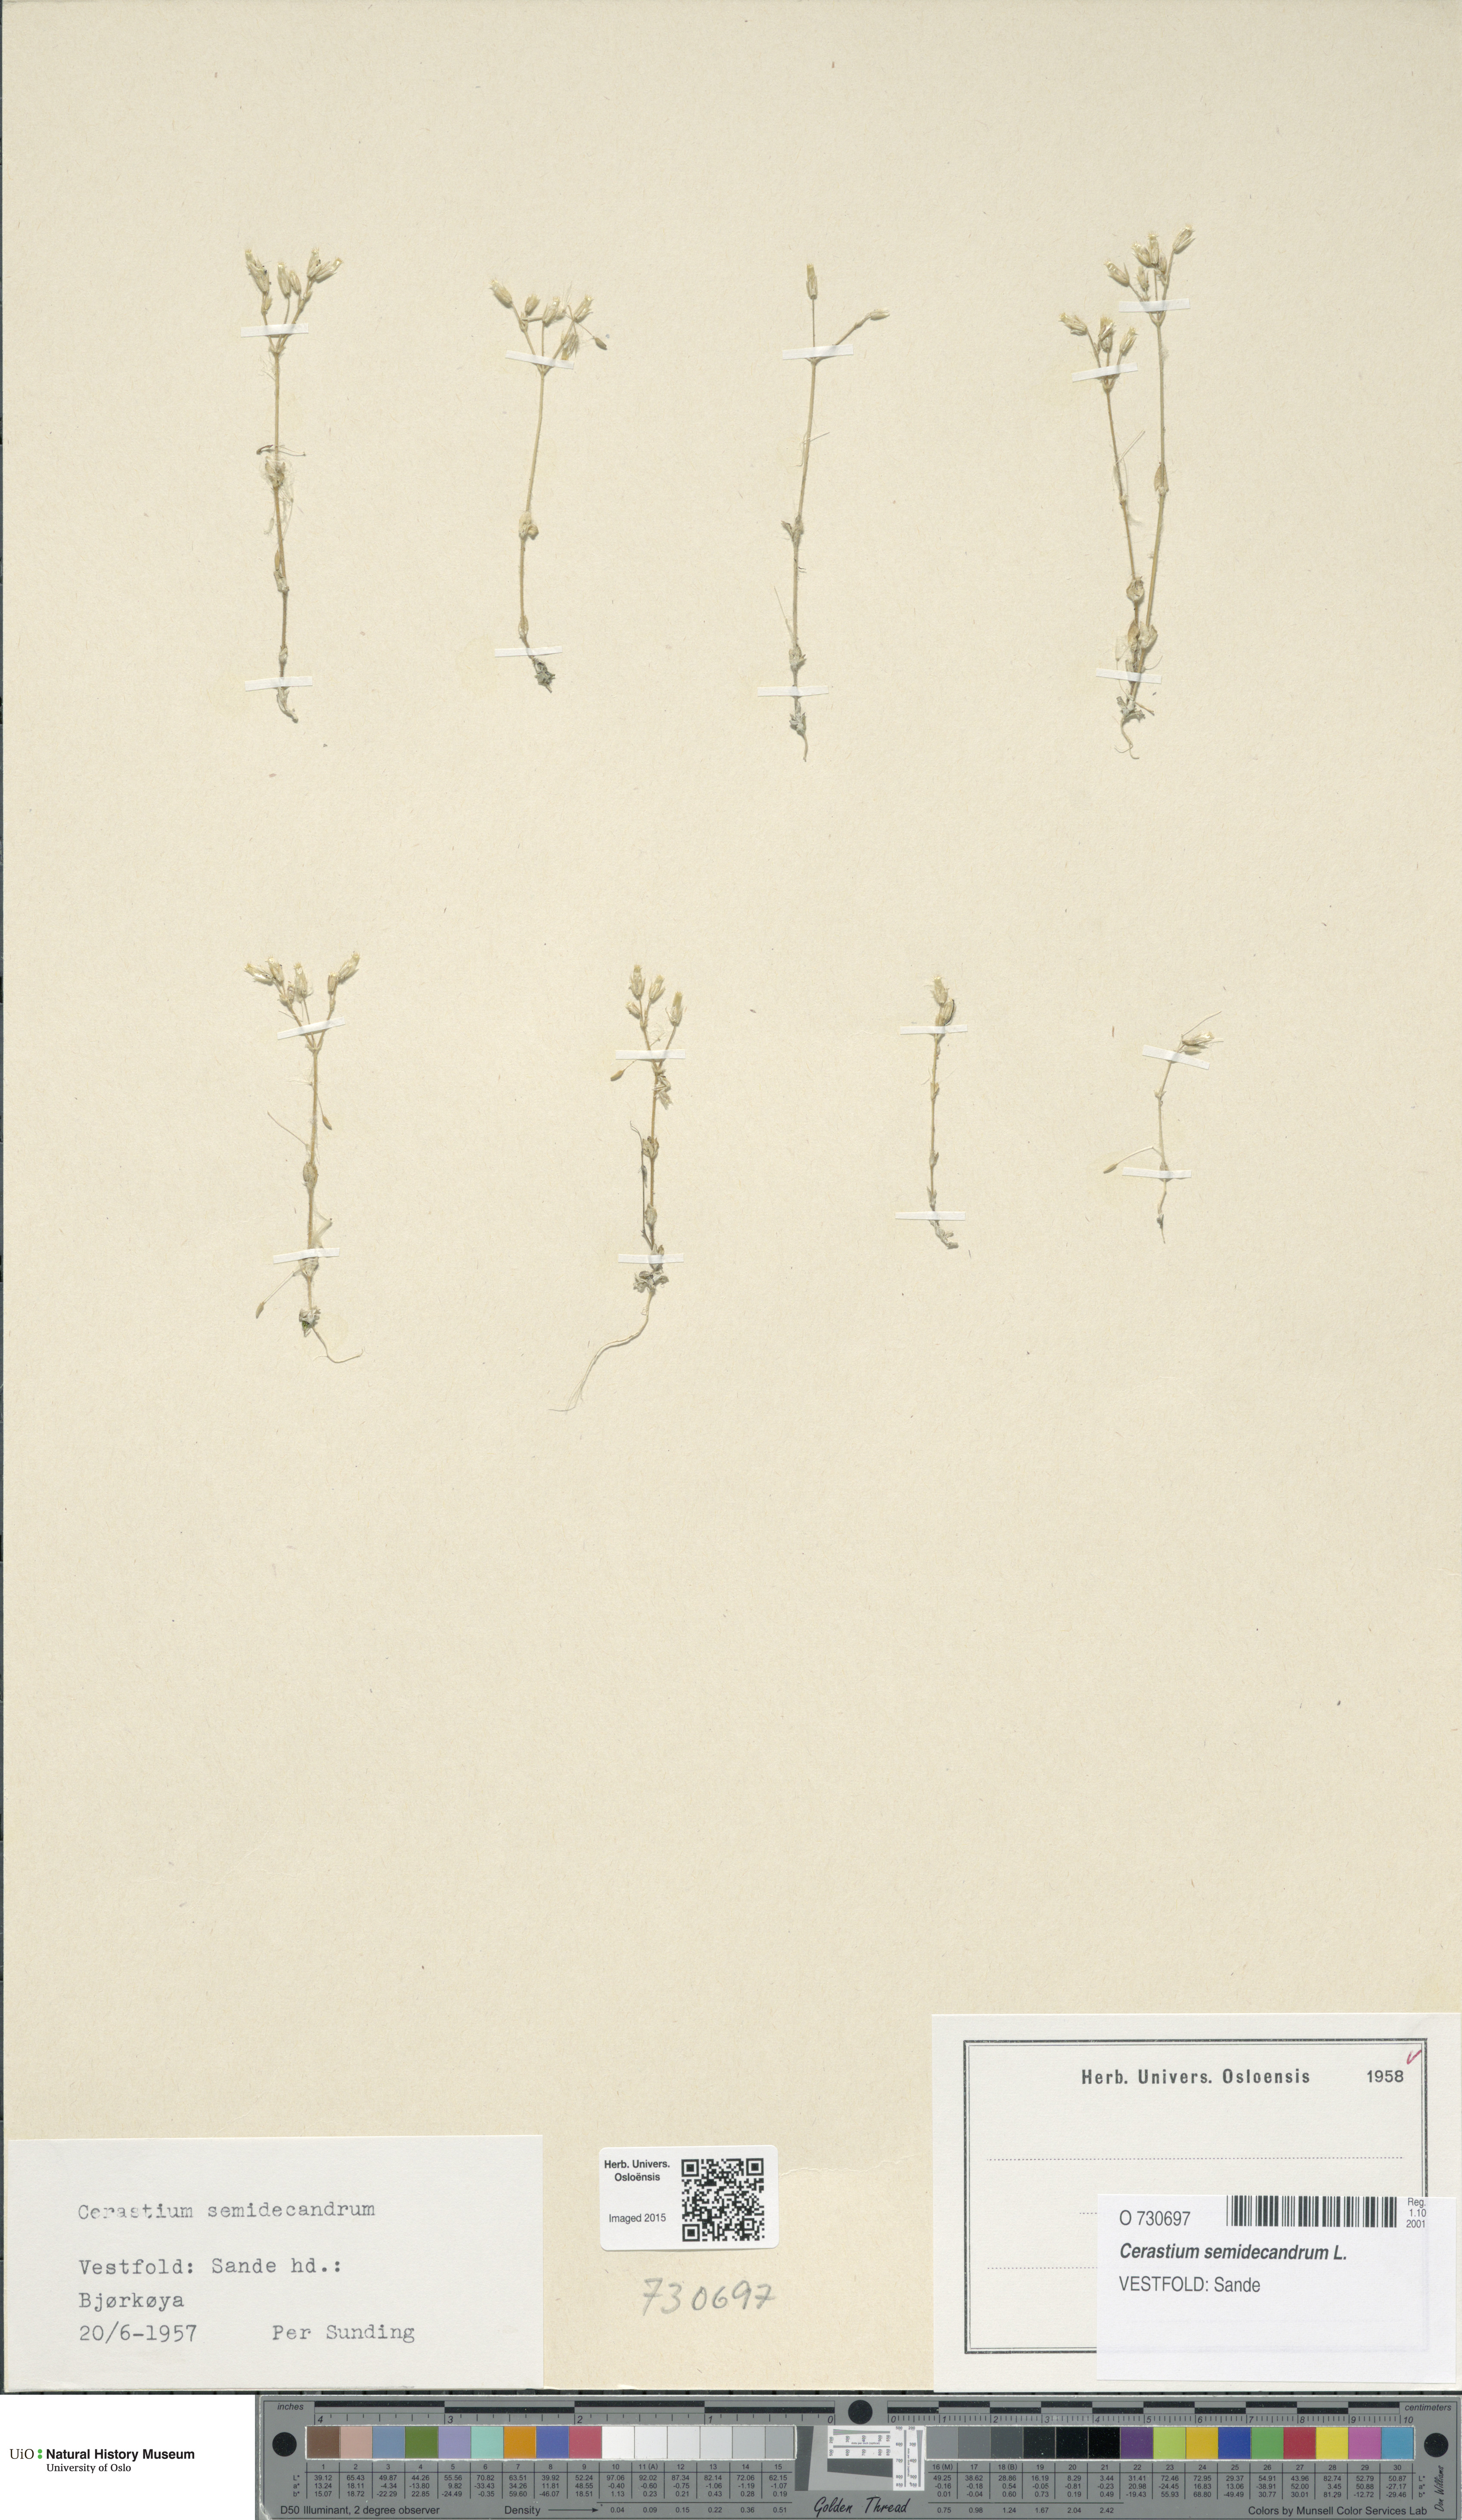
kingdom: Plantae
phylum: Tracheophyta
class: Magnoliopsida
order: Caryophyllales
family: Caryophyllaceae
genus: Cerastium
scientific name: Cerastium semidecandrum
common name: Little mouse-ear
